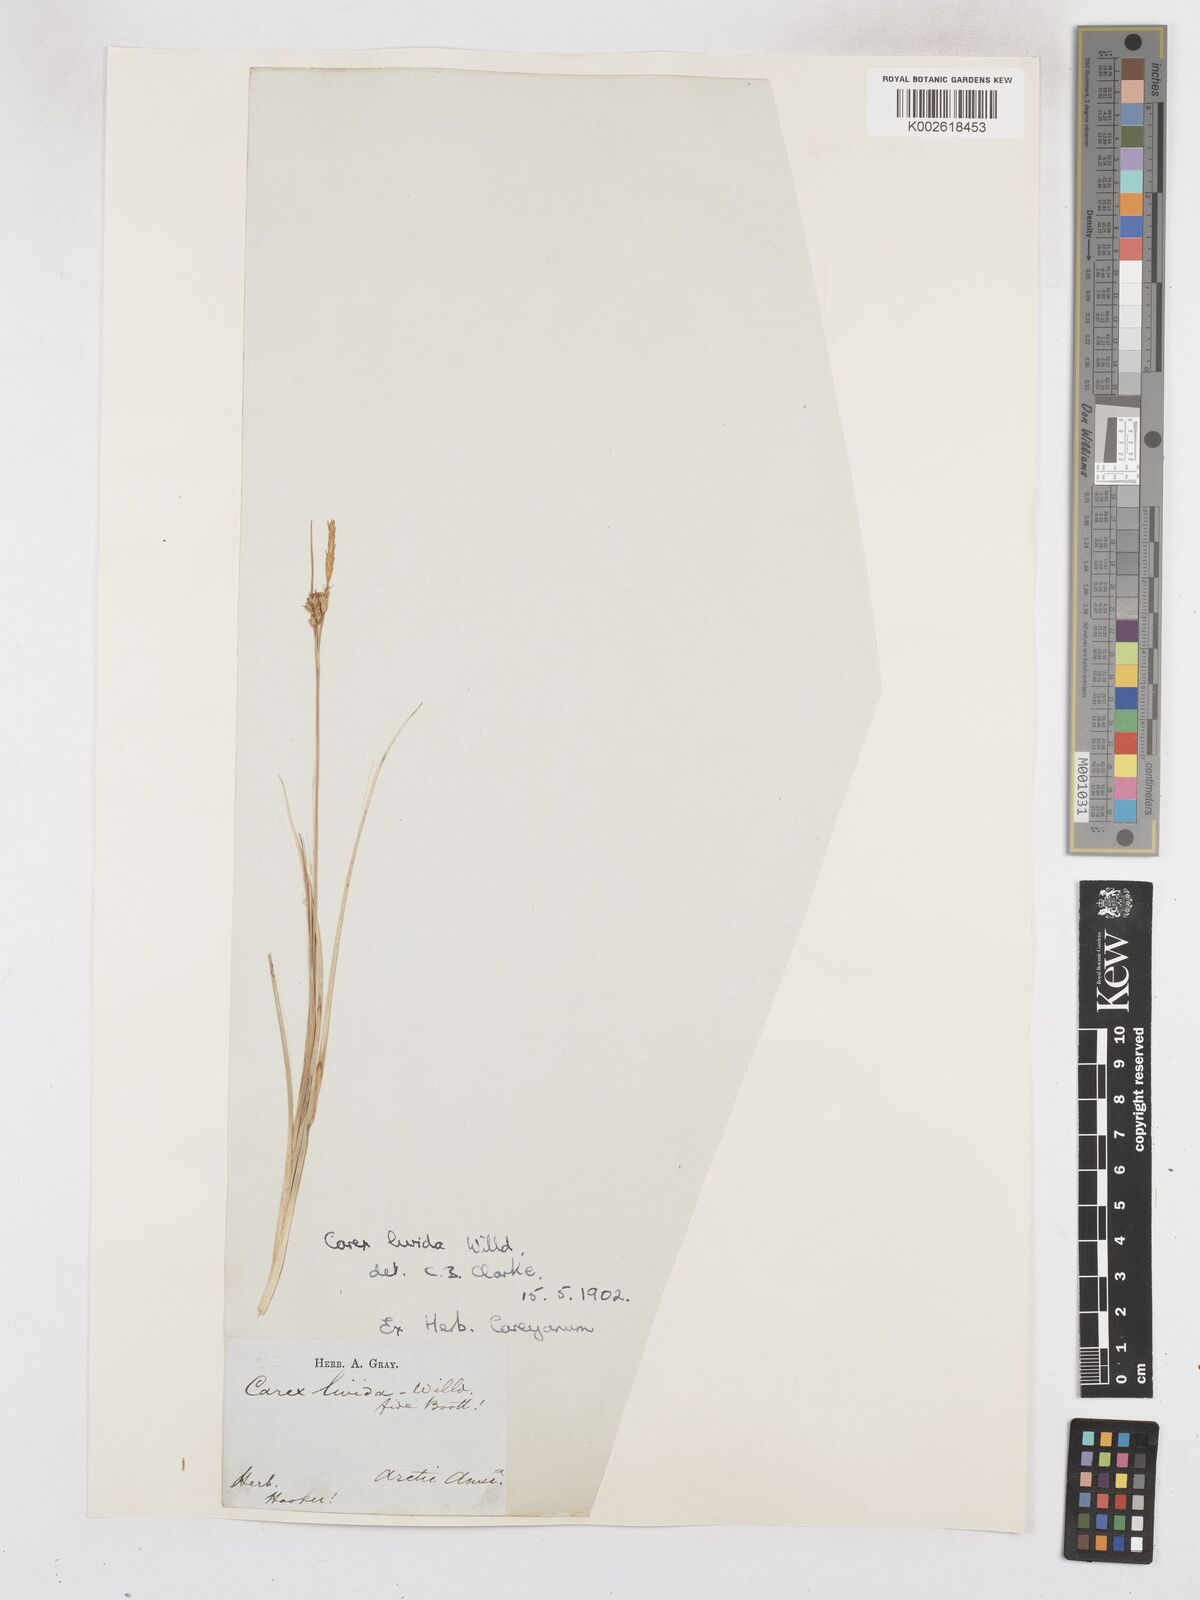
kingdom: Plantae
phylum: Tracheophyta
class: Liliopsida
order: Poales
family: Cyperaceae
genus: Carex
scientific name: Carex livida
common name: Livid sedge
